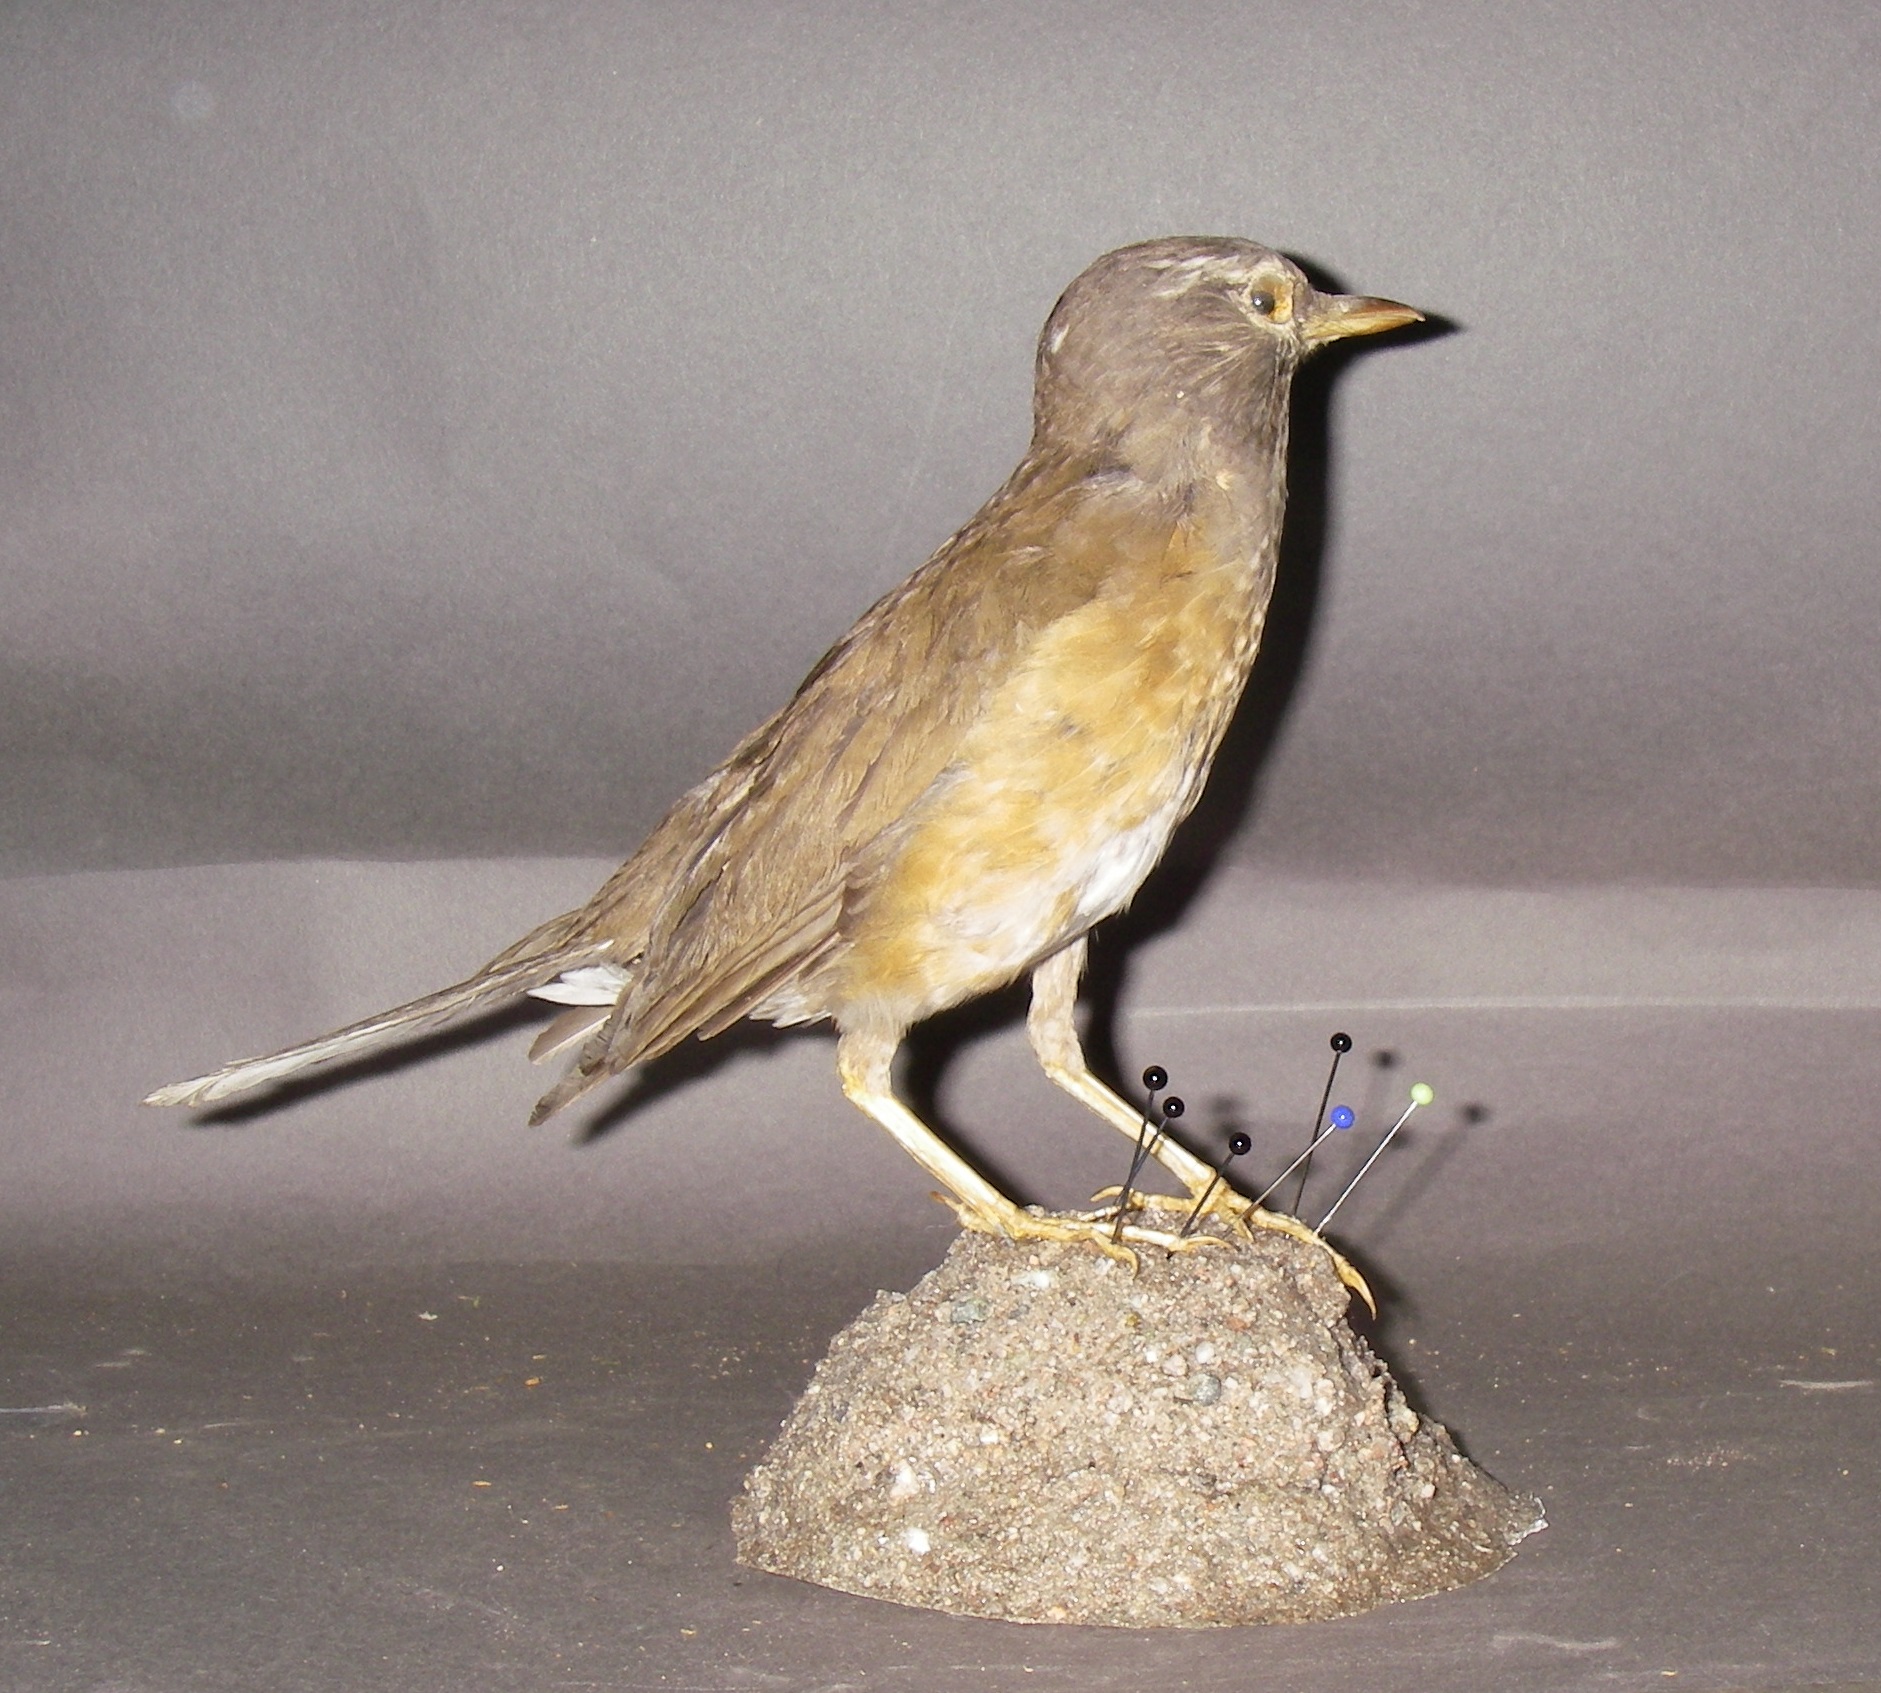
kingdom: Animalia
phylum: Chordata
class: Aves
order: Passeriformes
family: Turdidae
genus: Turdus
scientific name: Turdus obscurus
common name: Eyebrowed thrush
